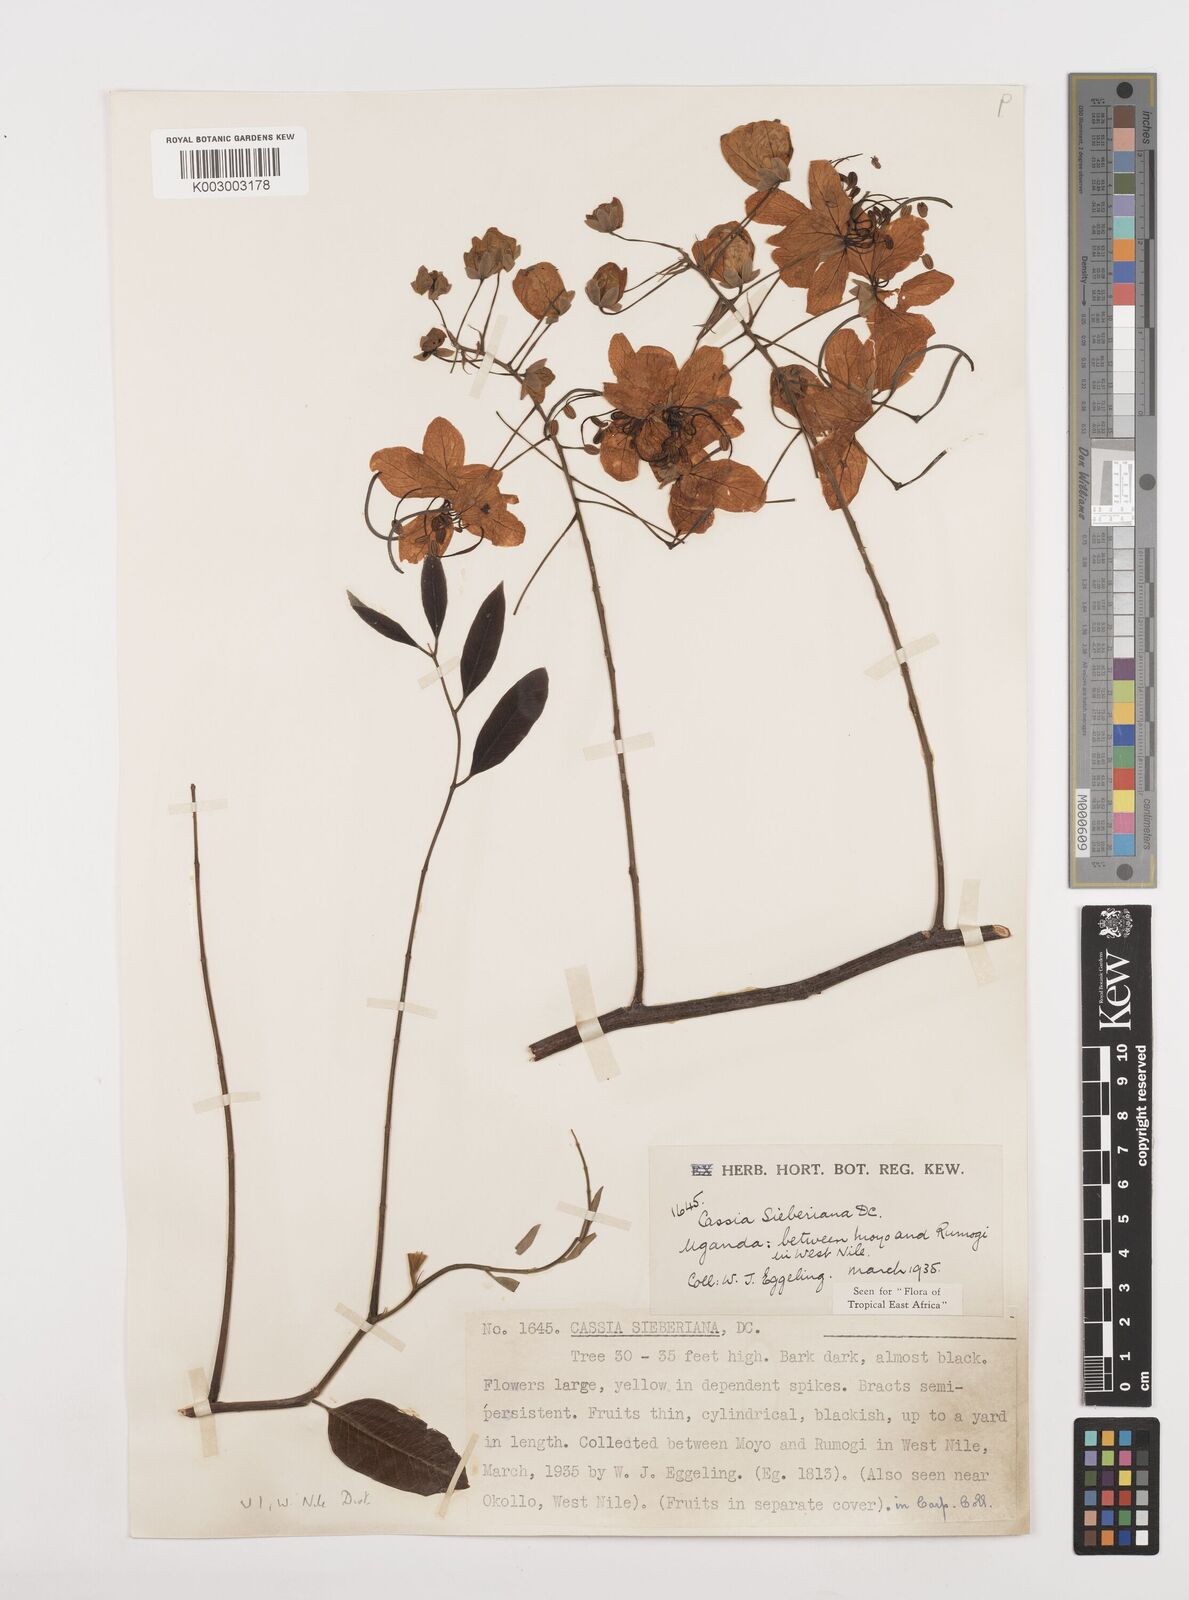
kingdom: Plantae
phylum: Tracheophyta
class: Magnoliopsida
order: Fabales
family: Fabaceae
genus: Cassia
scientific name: Cassia sieberiana
